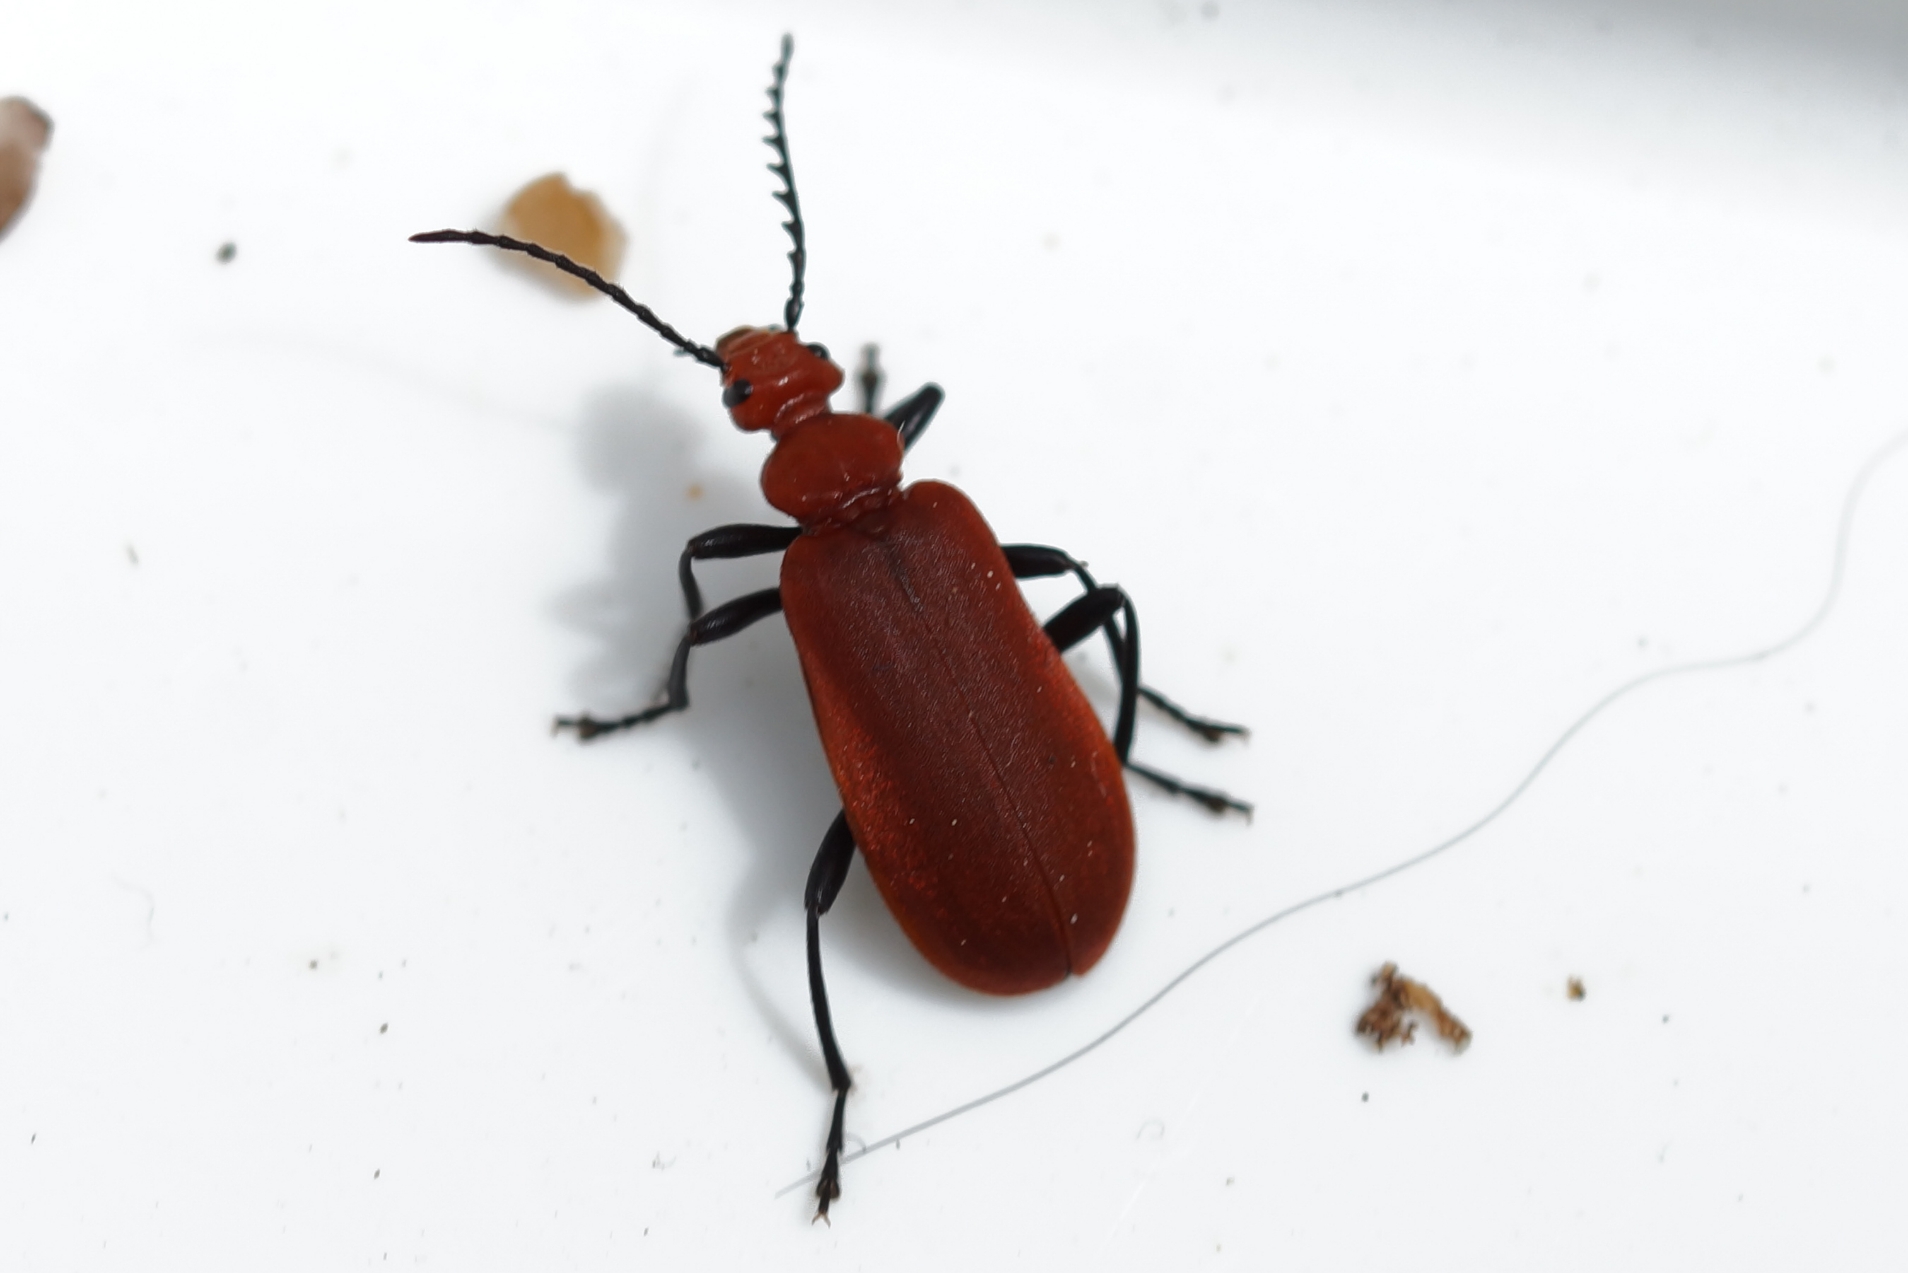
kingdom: Animalia
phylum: Arthropoda
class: Insecta
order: Coleoptera
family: Pyrochroidae
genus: Pyrochroa
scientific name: Pyrochroa serraticornis
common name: Rødhovedet kardinalbille
